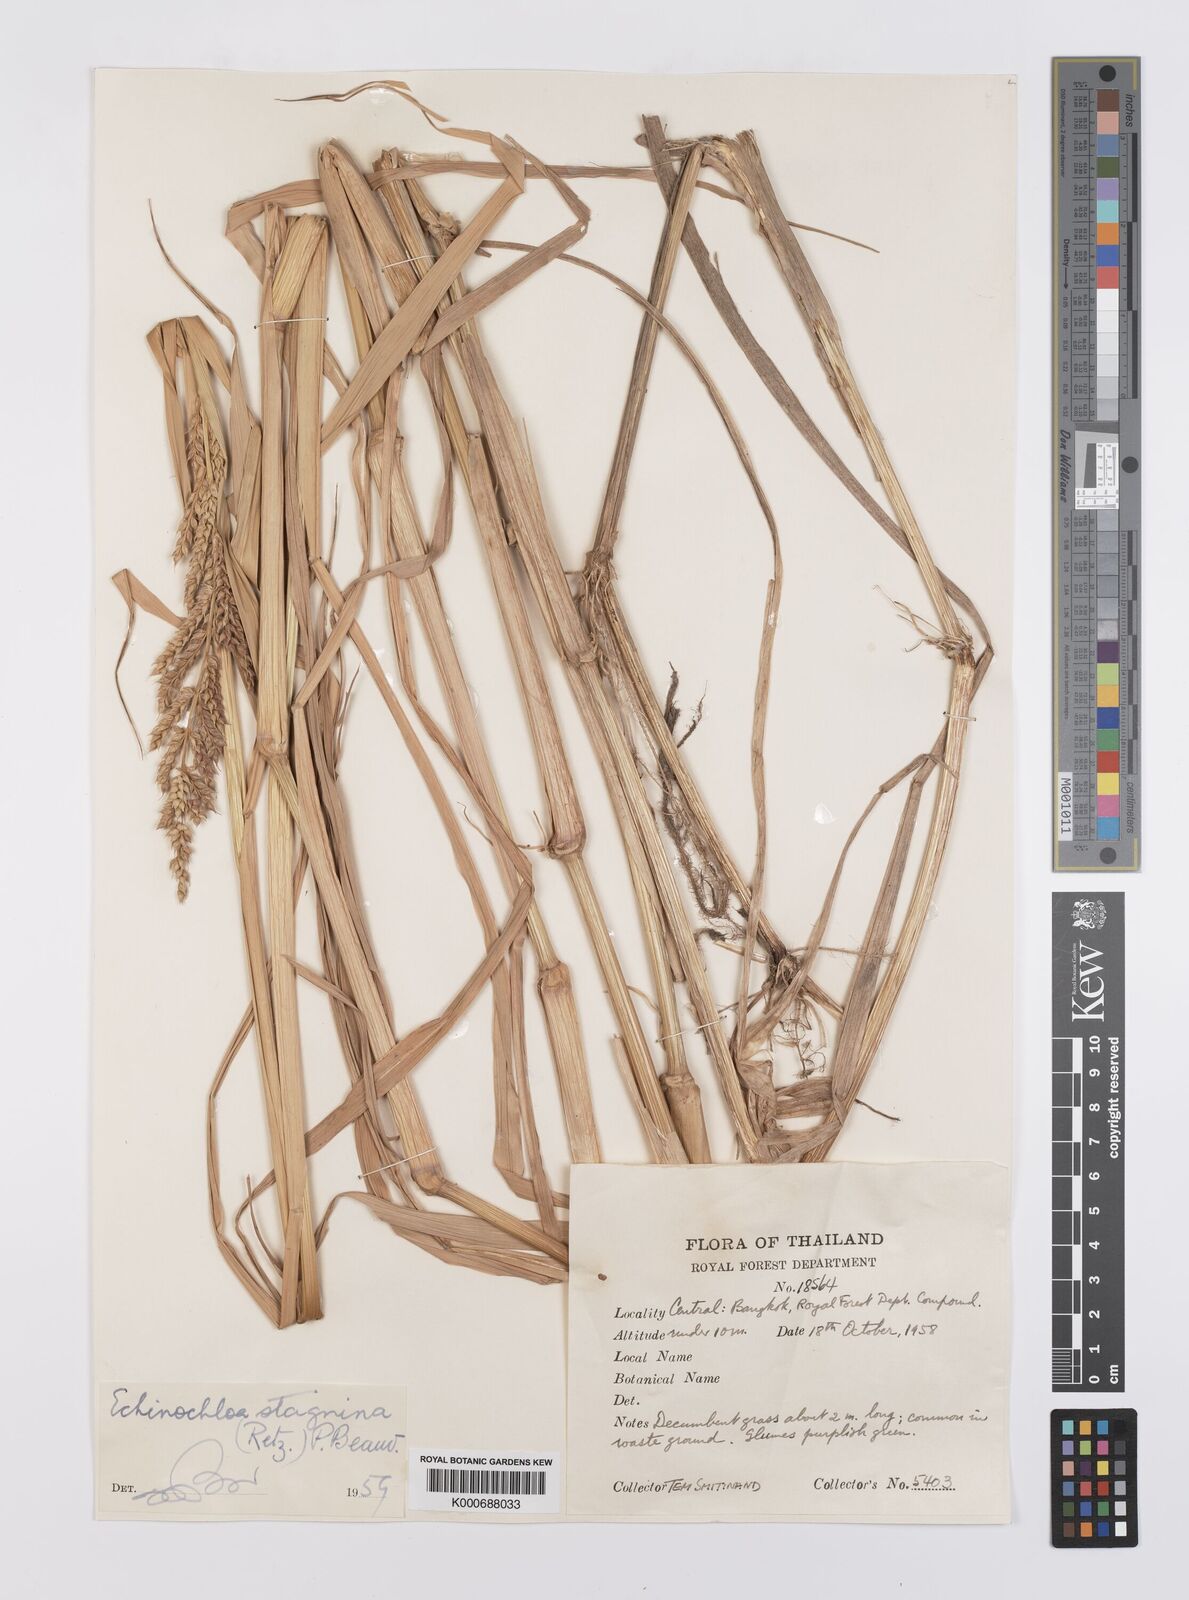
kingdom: Plantae
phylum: Tracheophyta
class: Liliopsida
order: Poales
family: Poaceae
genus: Echinochloa
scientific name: Echinochloa picta
